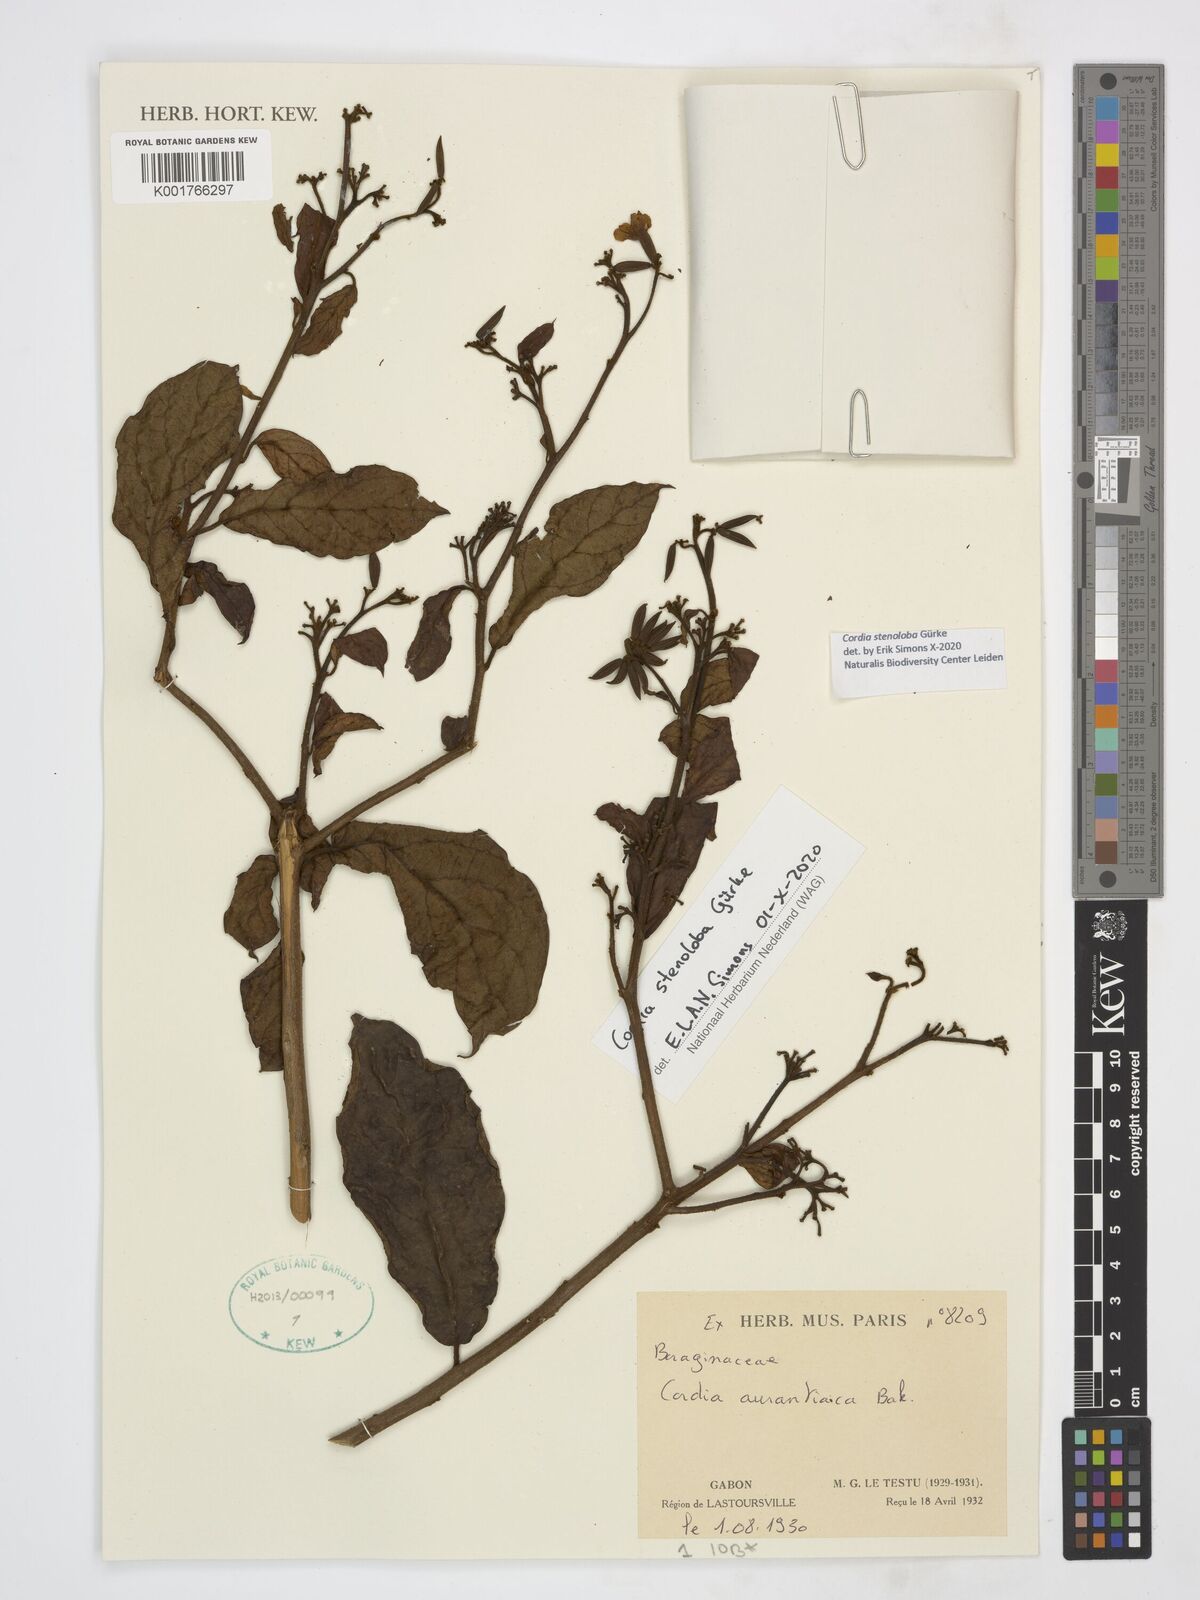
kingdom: Plantae
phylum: Tracheophyta
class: Magnoliopsida
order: Boraginales
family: Cordiaceae
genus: Cordia
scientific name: Cordia stenoloba
